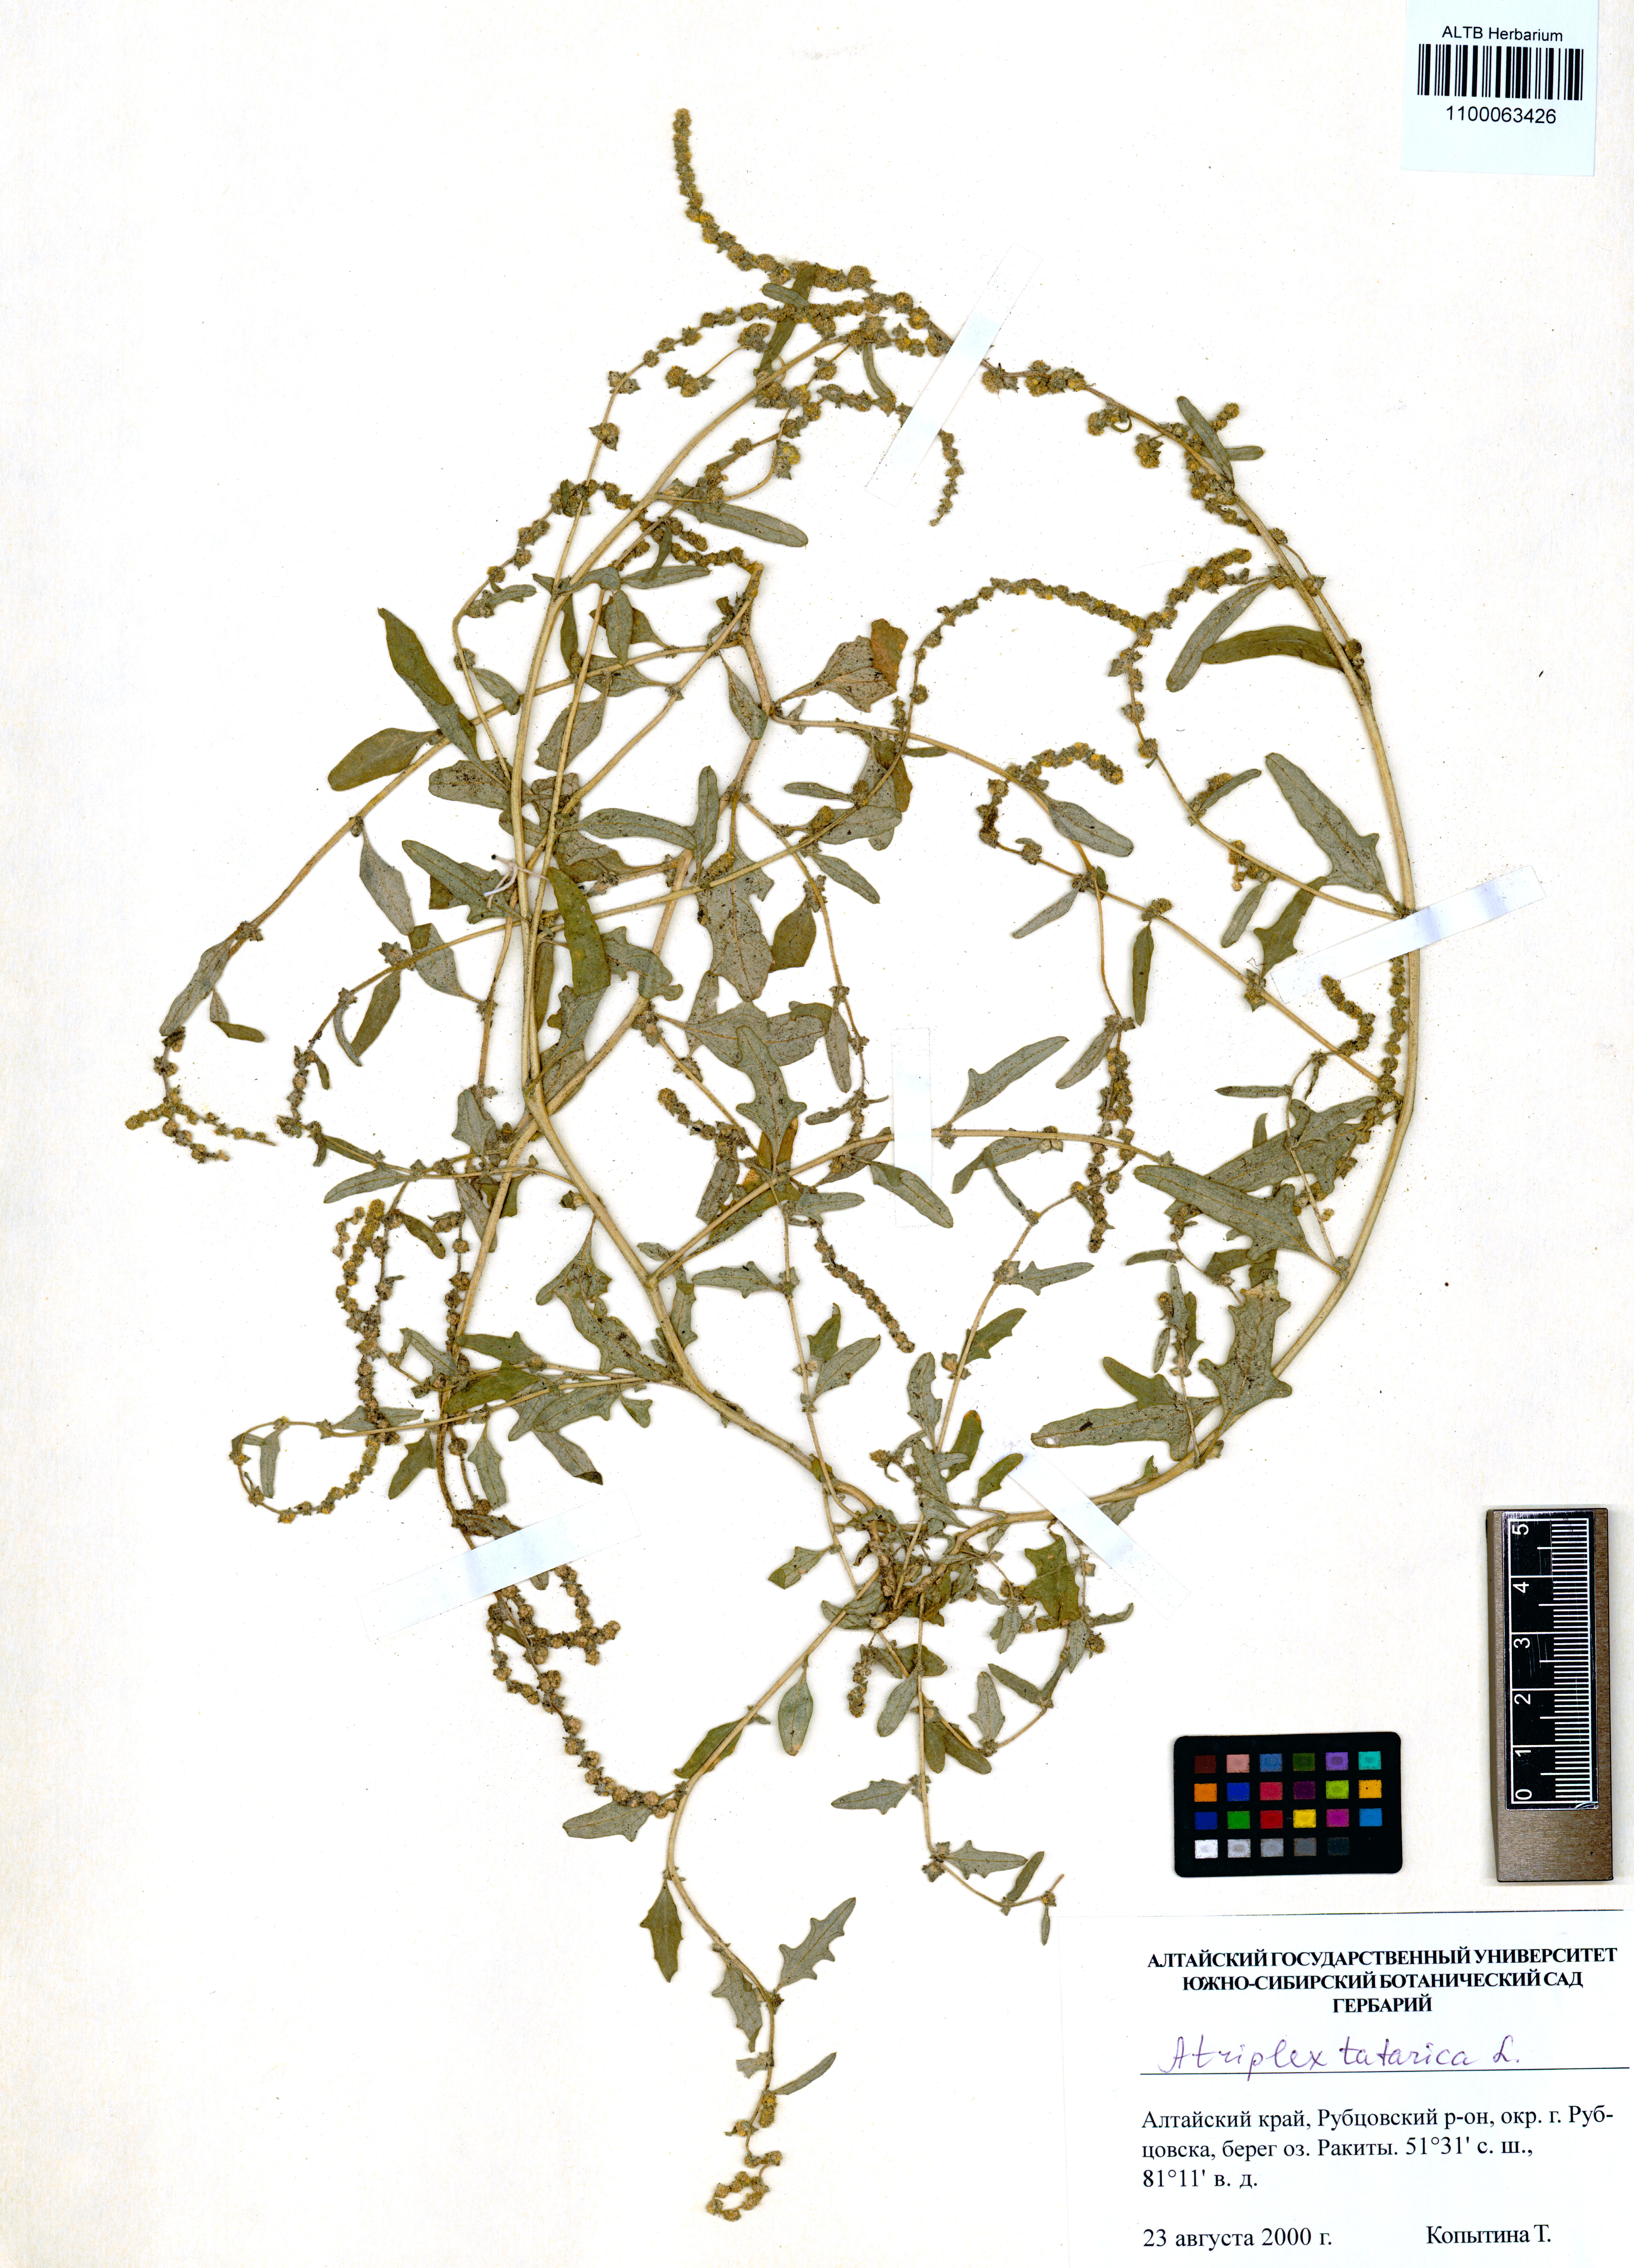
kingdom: Plantae
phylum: Tracheophyta
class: Magnoliopsida
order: Caryophyllales
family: Amaranthaceae
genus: Atriplex
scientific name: Atriplex tatarica
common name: Tatarian orache
